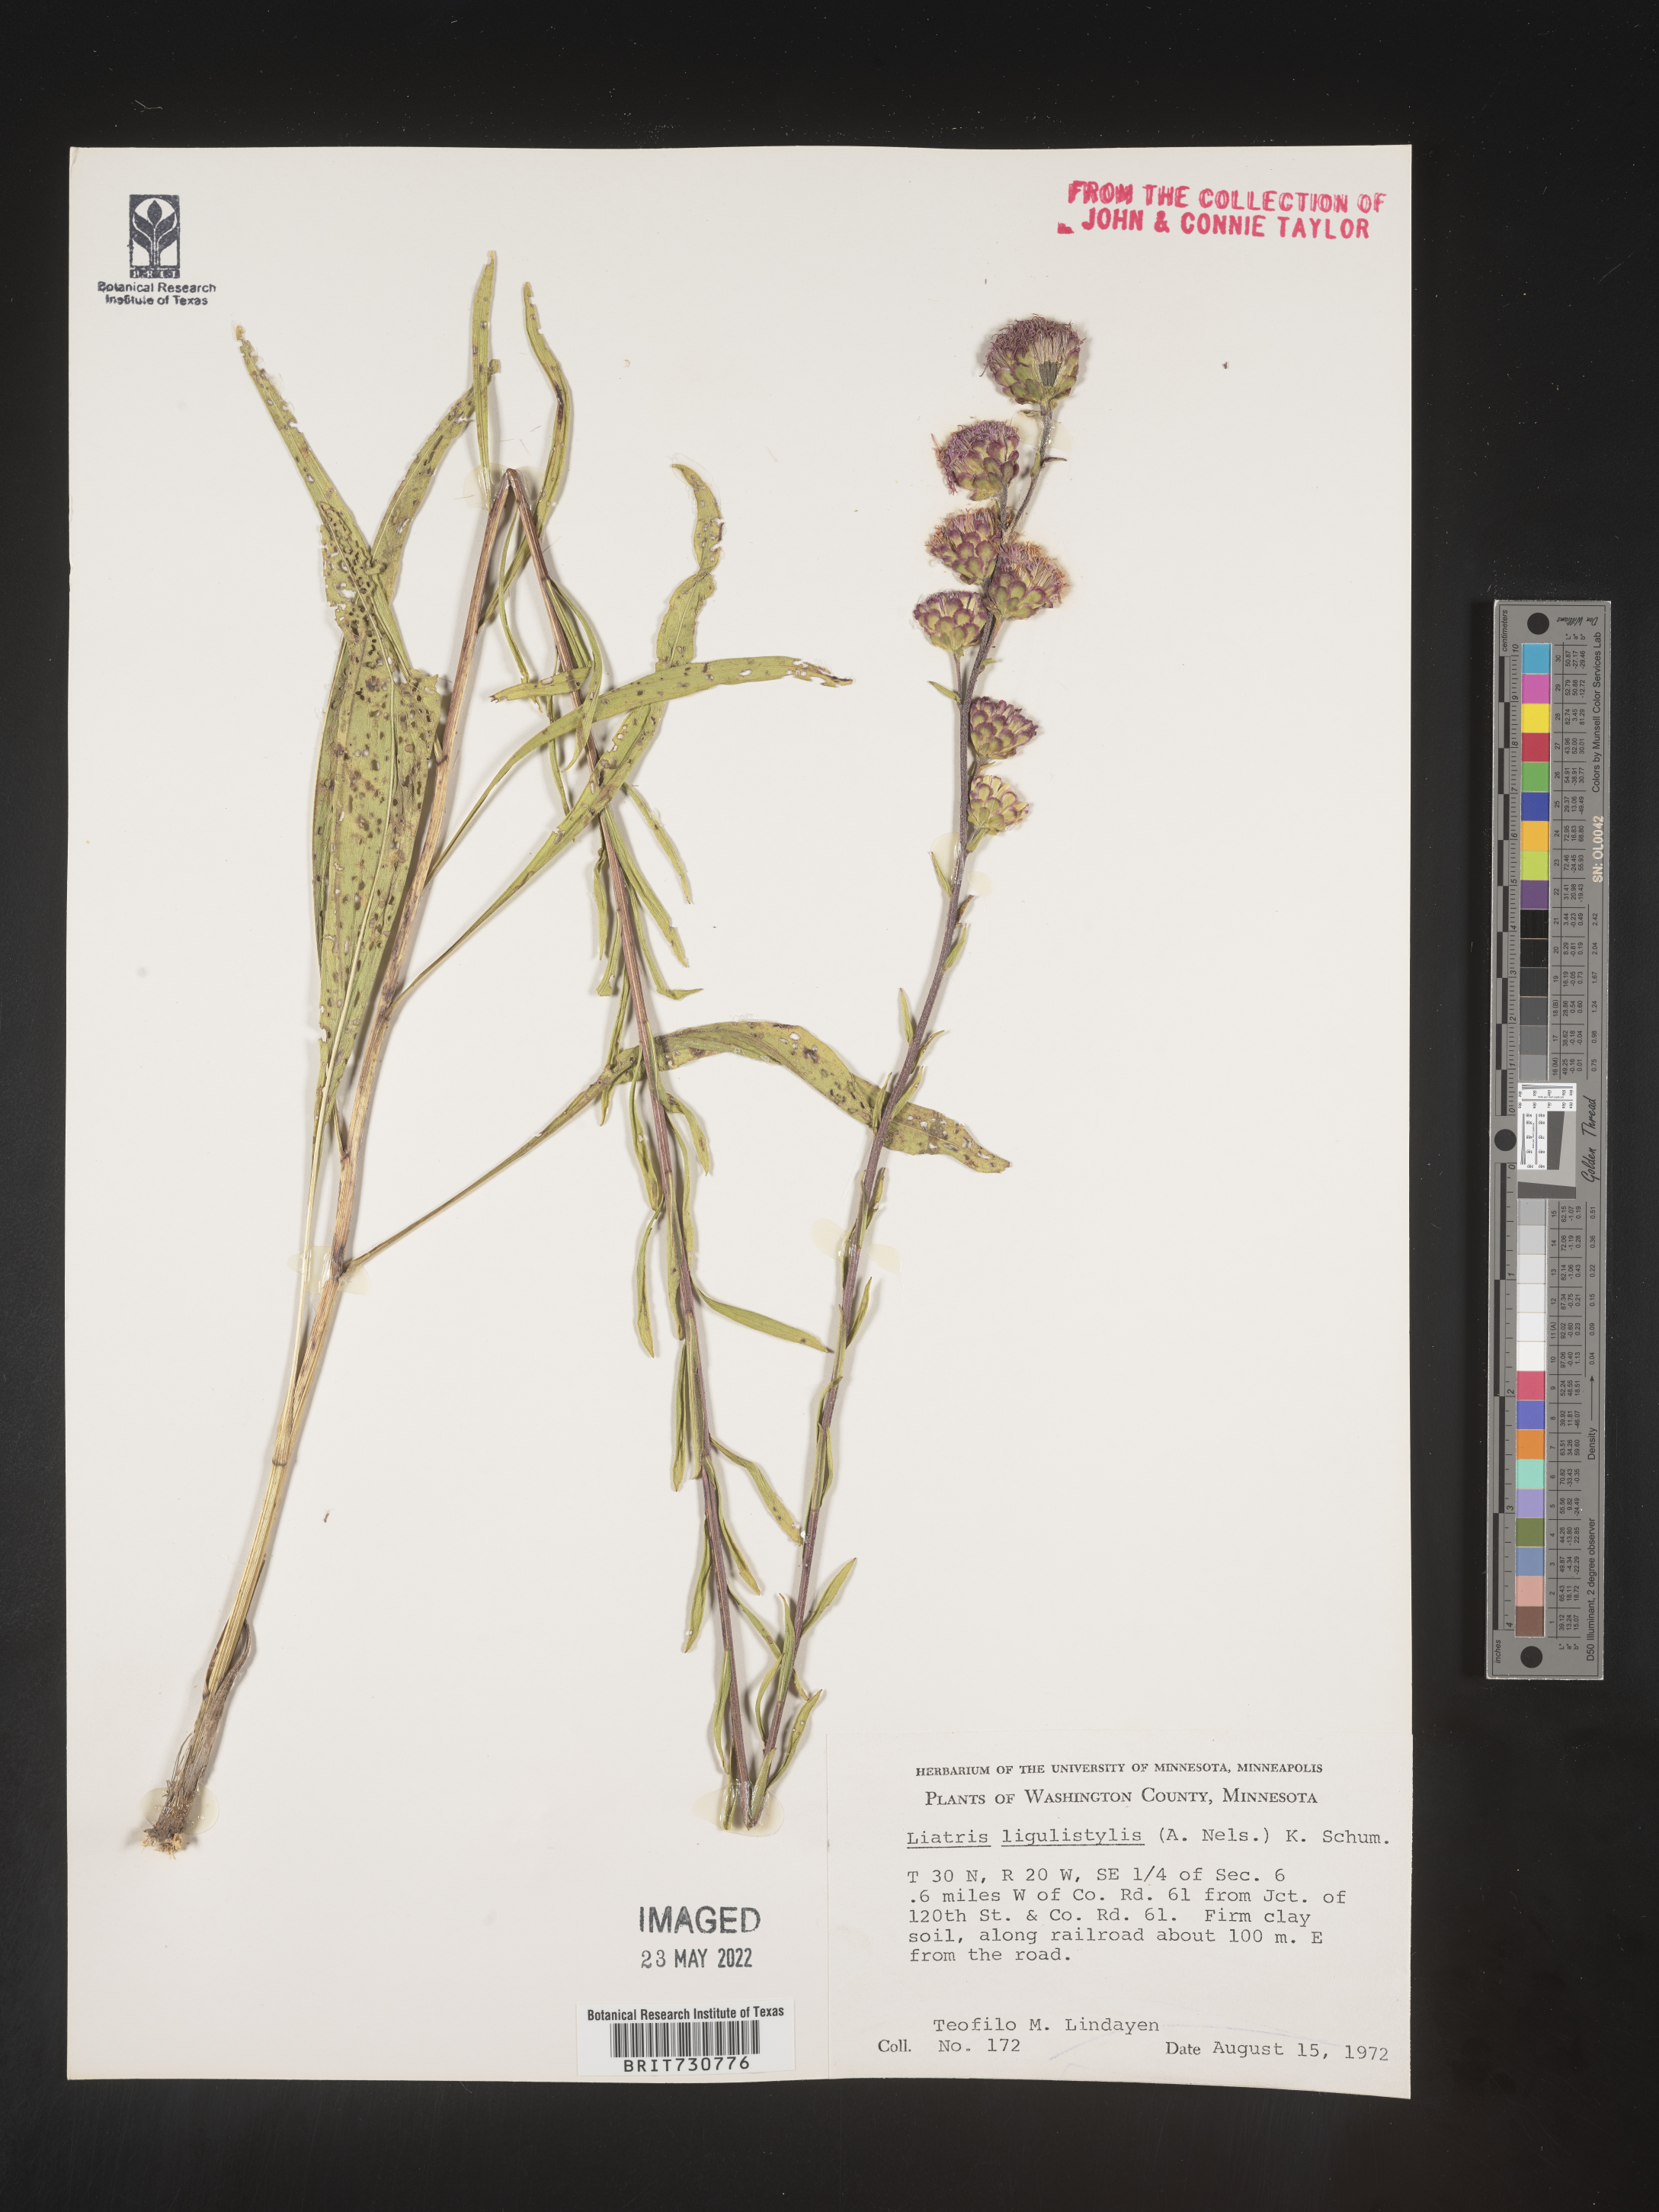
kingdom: Plantae
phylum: Tracheophyta
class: Magnoliopsida
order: Asterales
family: Asteraceae
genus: Liatris
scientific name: Liatris ligulistylis
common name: Northern plains gayfeather
